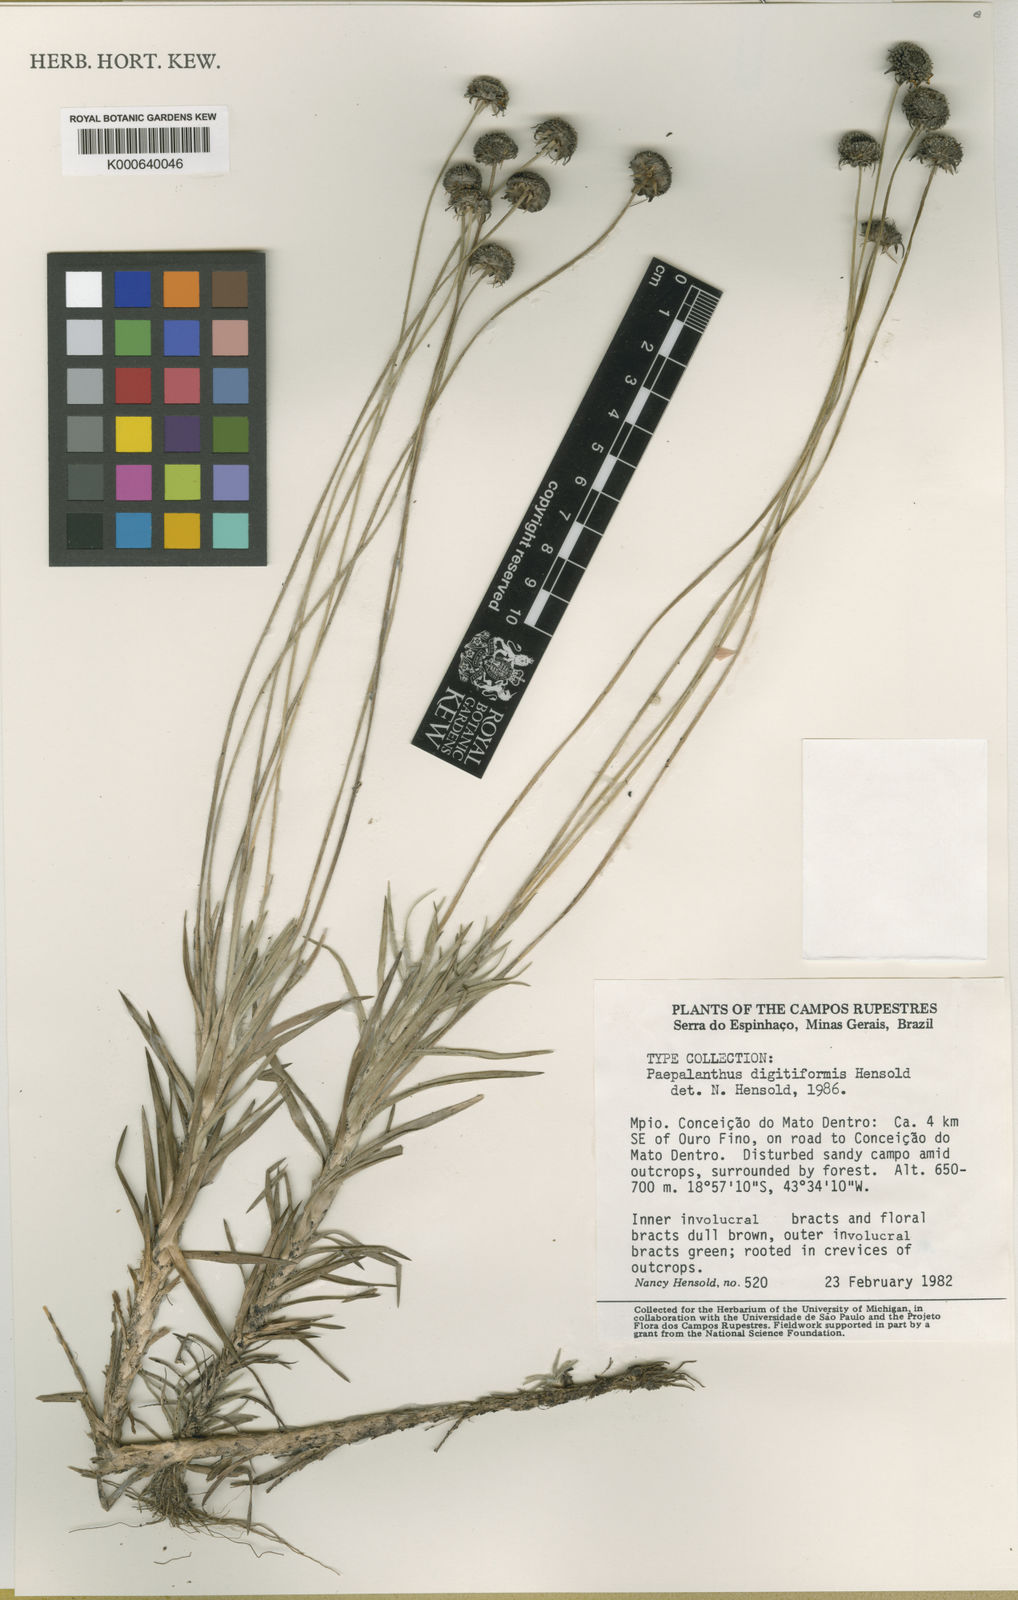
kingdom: Plantae
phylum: Tracheophyta
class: Liliopsida
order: Poales
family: Eriocaulaceae
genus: Paepalanthus
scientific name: Paepalanthus digitiformis
